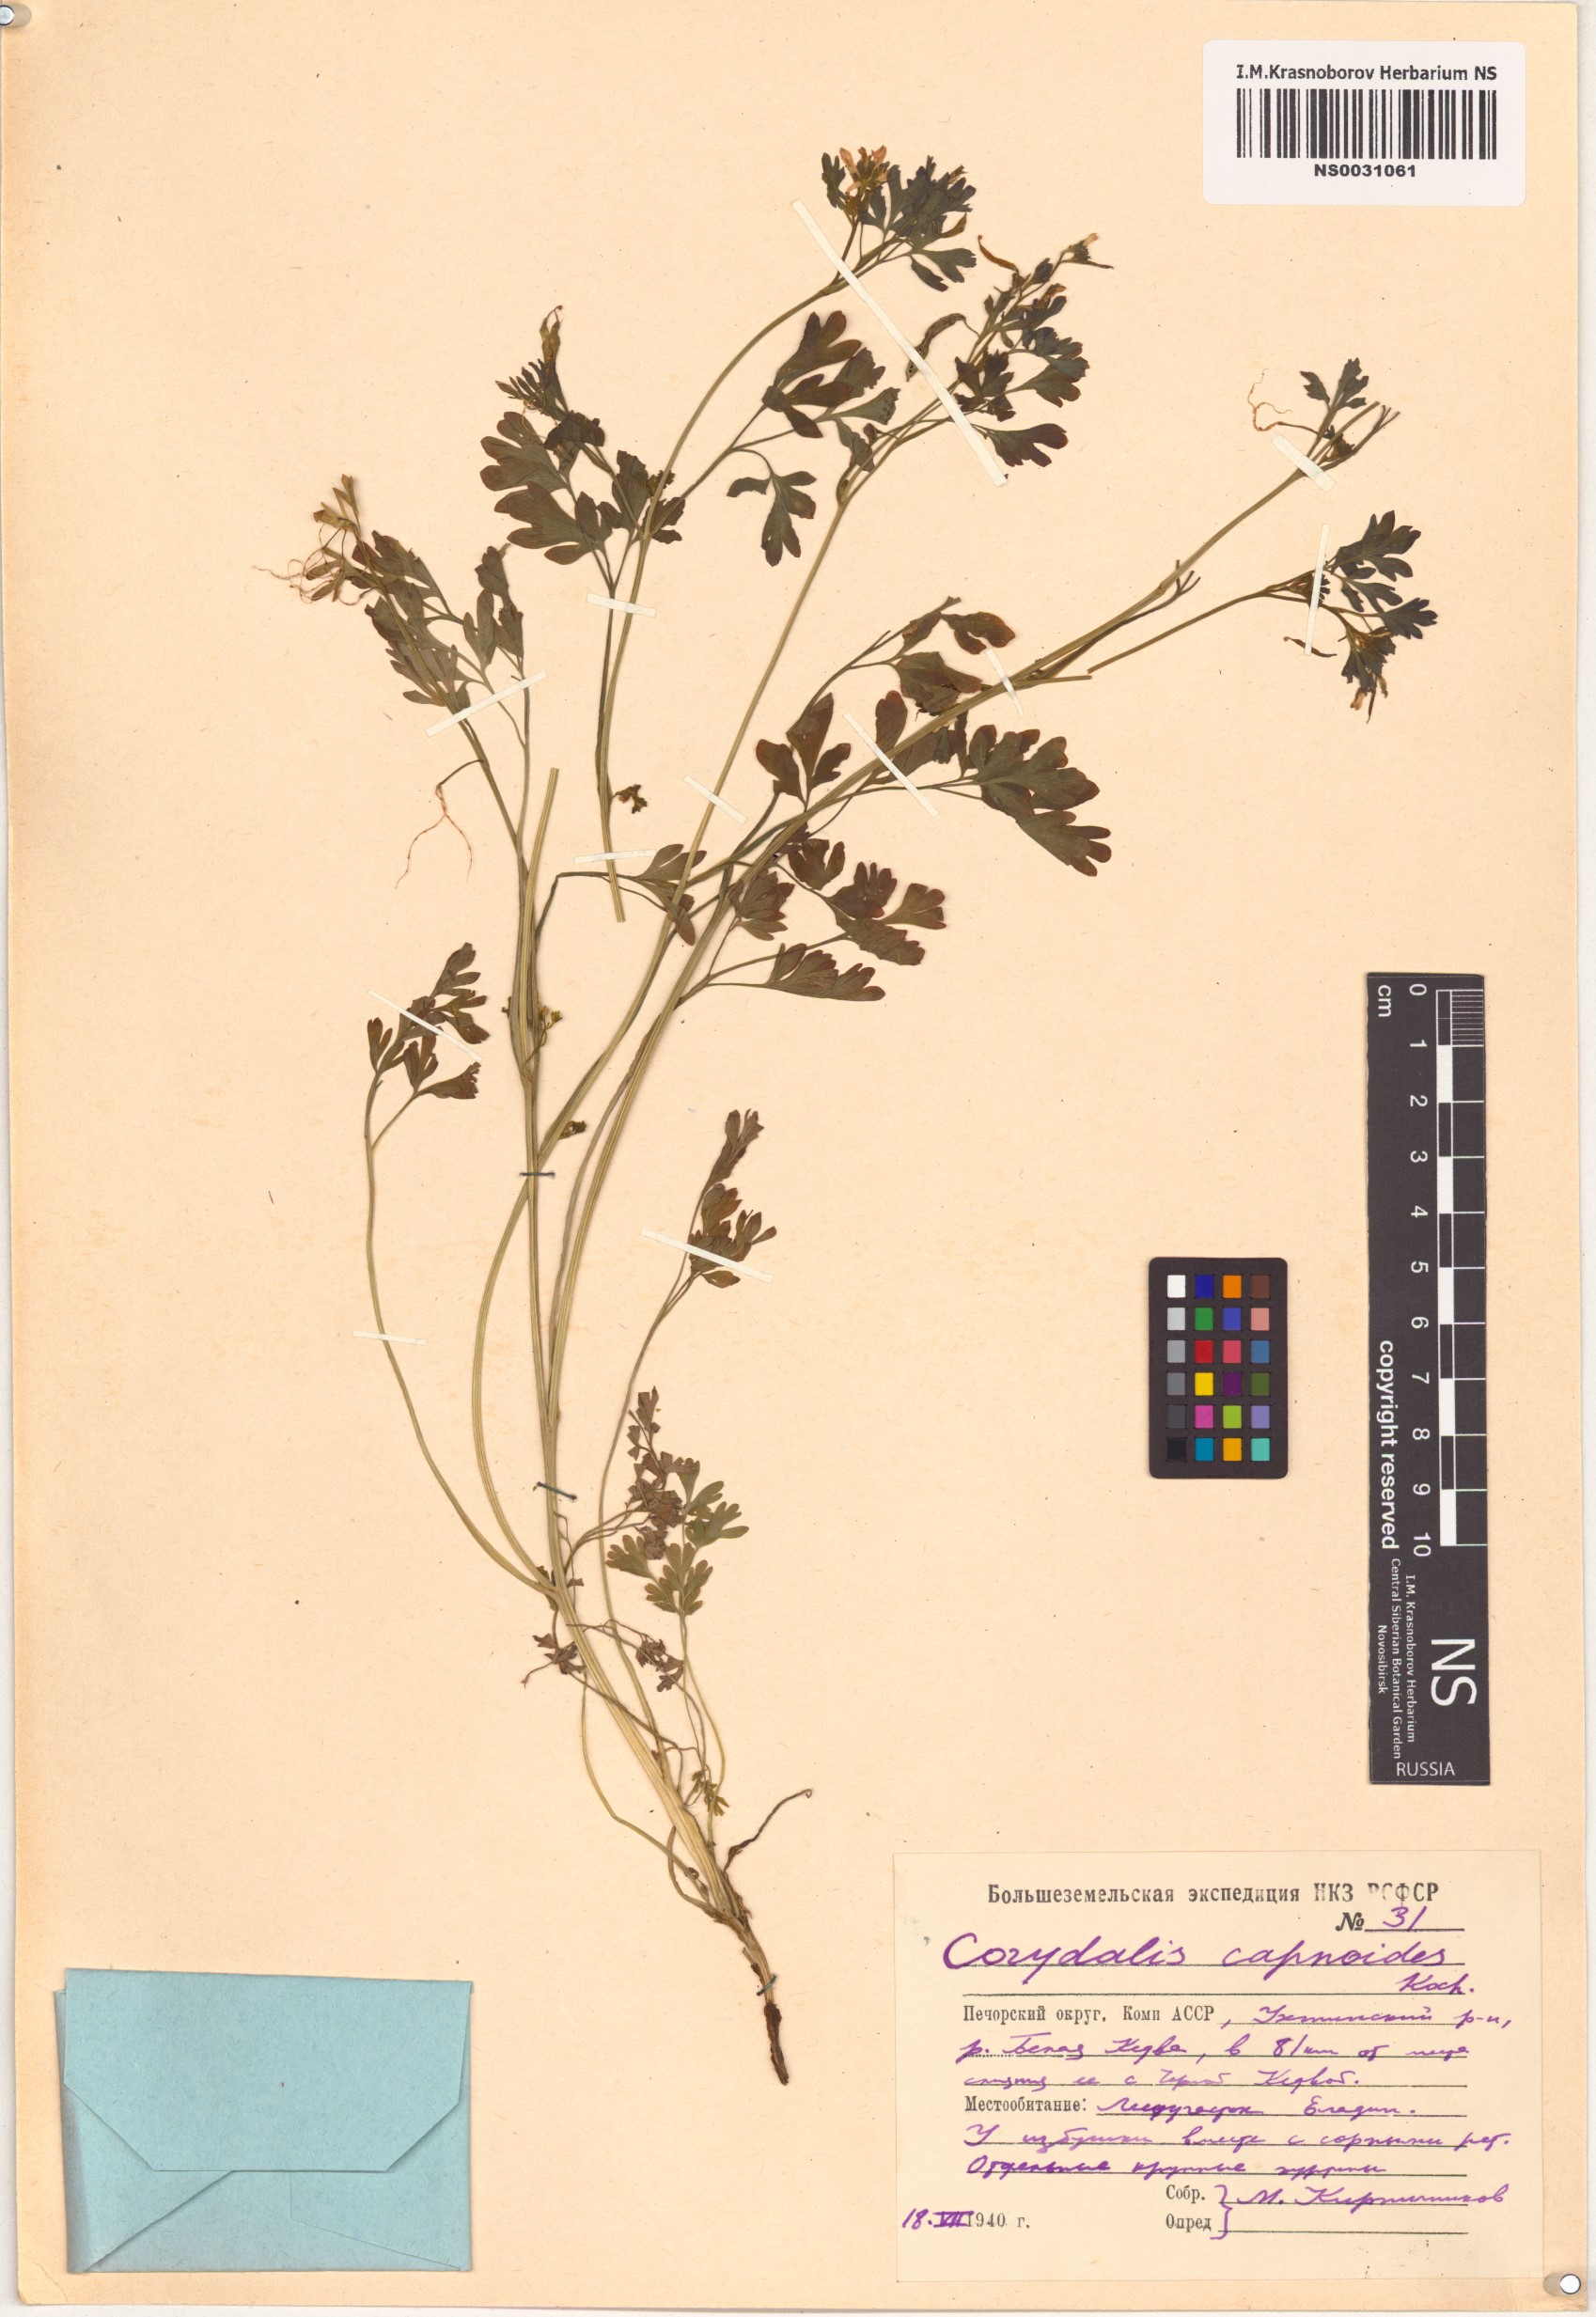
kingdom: Plantae
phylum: Tracheophyta
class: Magnoliopsida
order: Ranunculales
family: Papaveraceae
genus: Corydalis
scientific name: Corydalis capnoides
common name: Beaked corydalis
